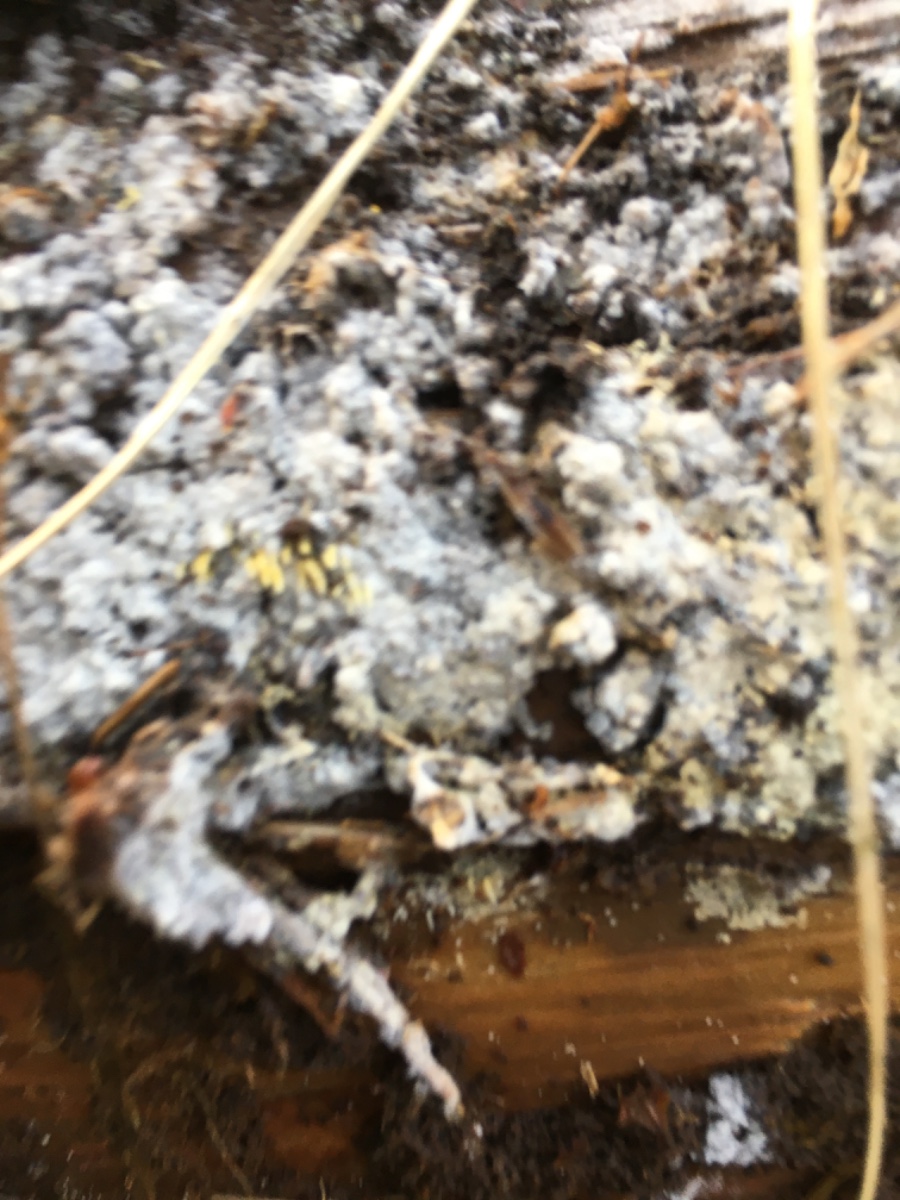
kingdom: Fungi
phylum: Basidiomycota
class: Agaricomycetes
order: Agaricales
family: Clavariaceae
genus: Mucronella
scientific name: Mucronella flava
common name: gul hængepig
